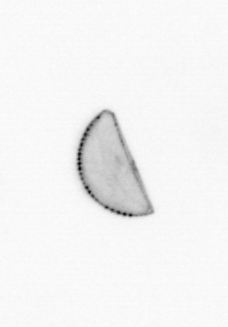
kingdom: Chromista
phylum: Ochrophyta
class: Bacillariophyceae
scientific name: Bacillariophyceae
